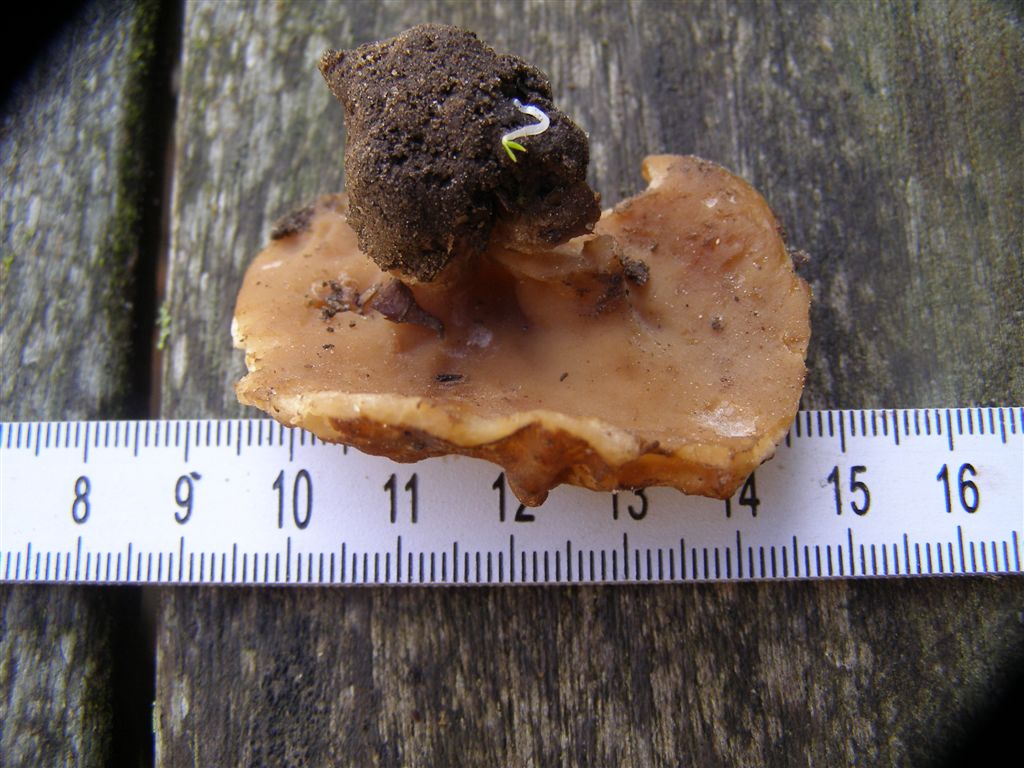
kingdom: Fungi
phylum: Ascomycota
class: Pezizomycetes
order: Pezizales
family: Morchellaceae
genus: Disciotis
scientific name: Disciotis venosa
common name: klor-bægermorkel
